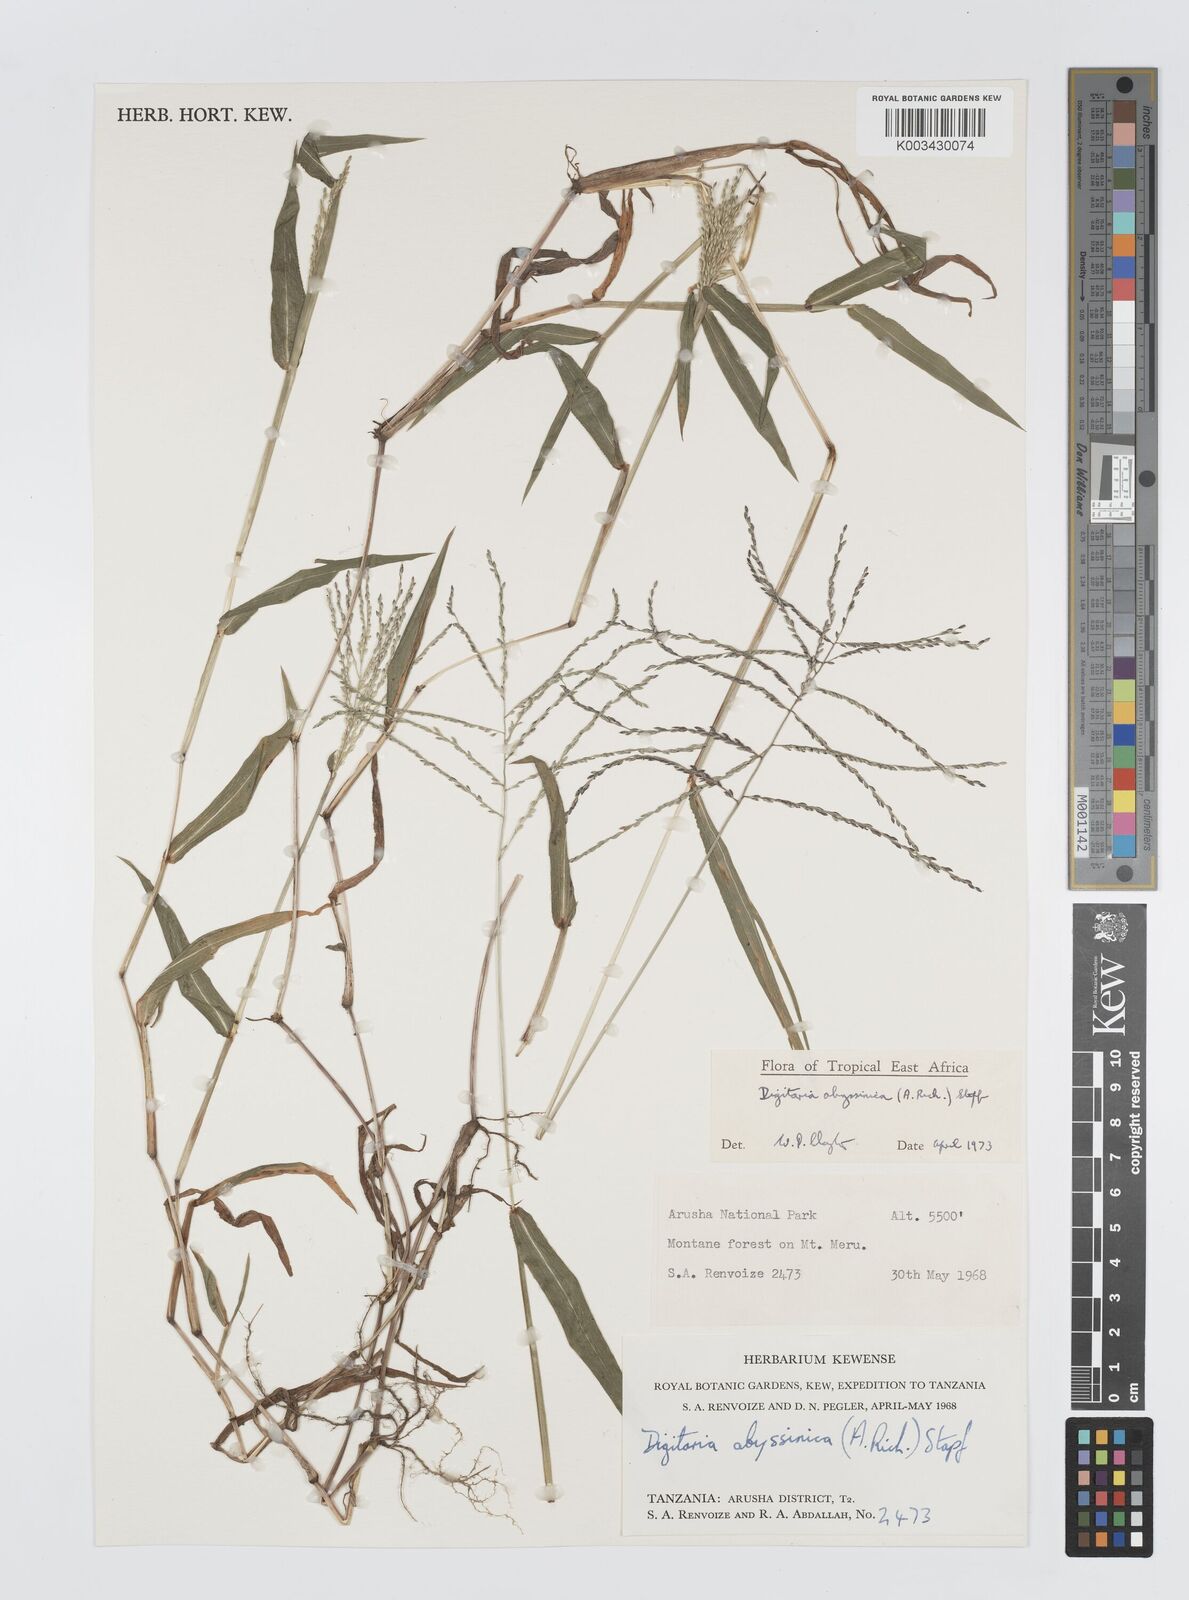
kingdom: Plantae
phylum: Tracheophyta
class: Liliopsida
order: Poales
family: Poaceae
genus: Digitaria
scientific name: Digitaria abyssinica
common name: African couchgrass
